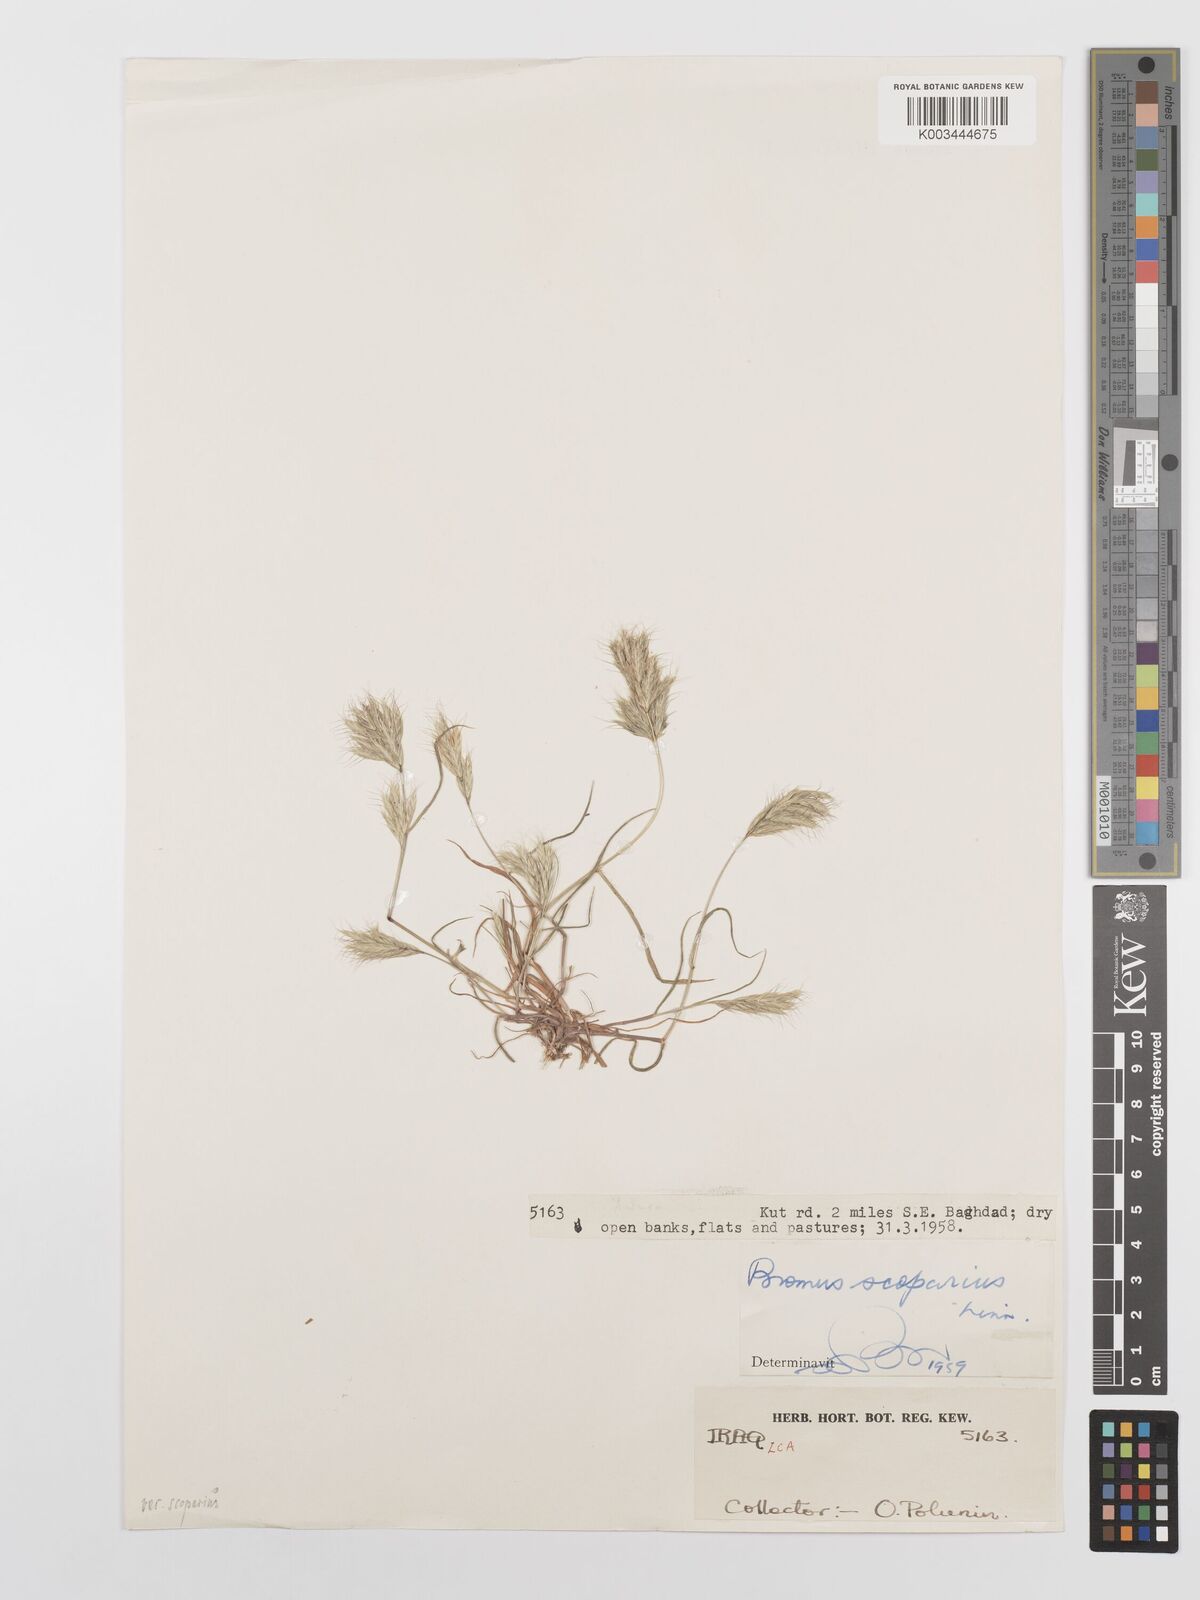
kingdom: Plantae
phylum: Tracheophyta
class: Liliopsida
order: Poales
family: Poaceae
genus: Bromus
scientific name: Bromus scoparius
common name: Broom brome
